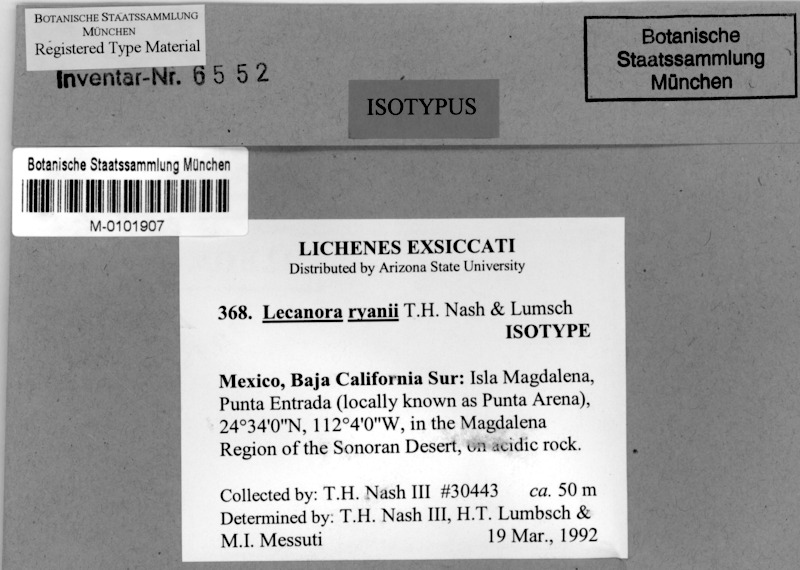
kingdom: Fungi
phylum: Ascomycota
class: Lecanoromycetes
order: Lecanorales
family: Lecanoraceae
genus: Lecanora
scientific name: Lecanora ryanii
